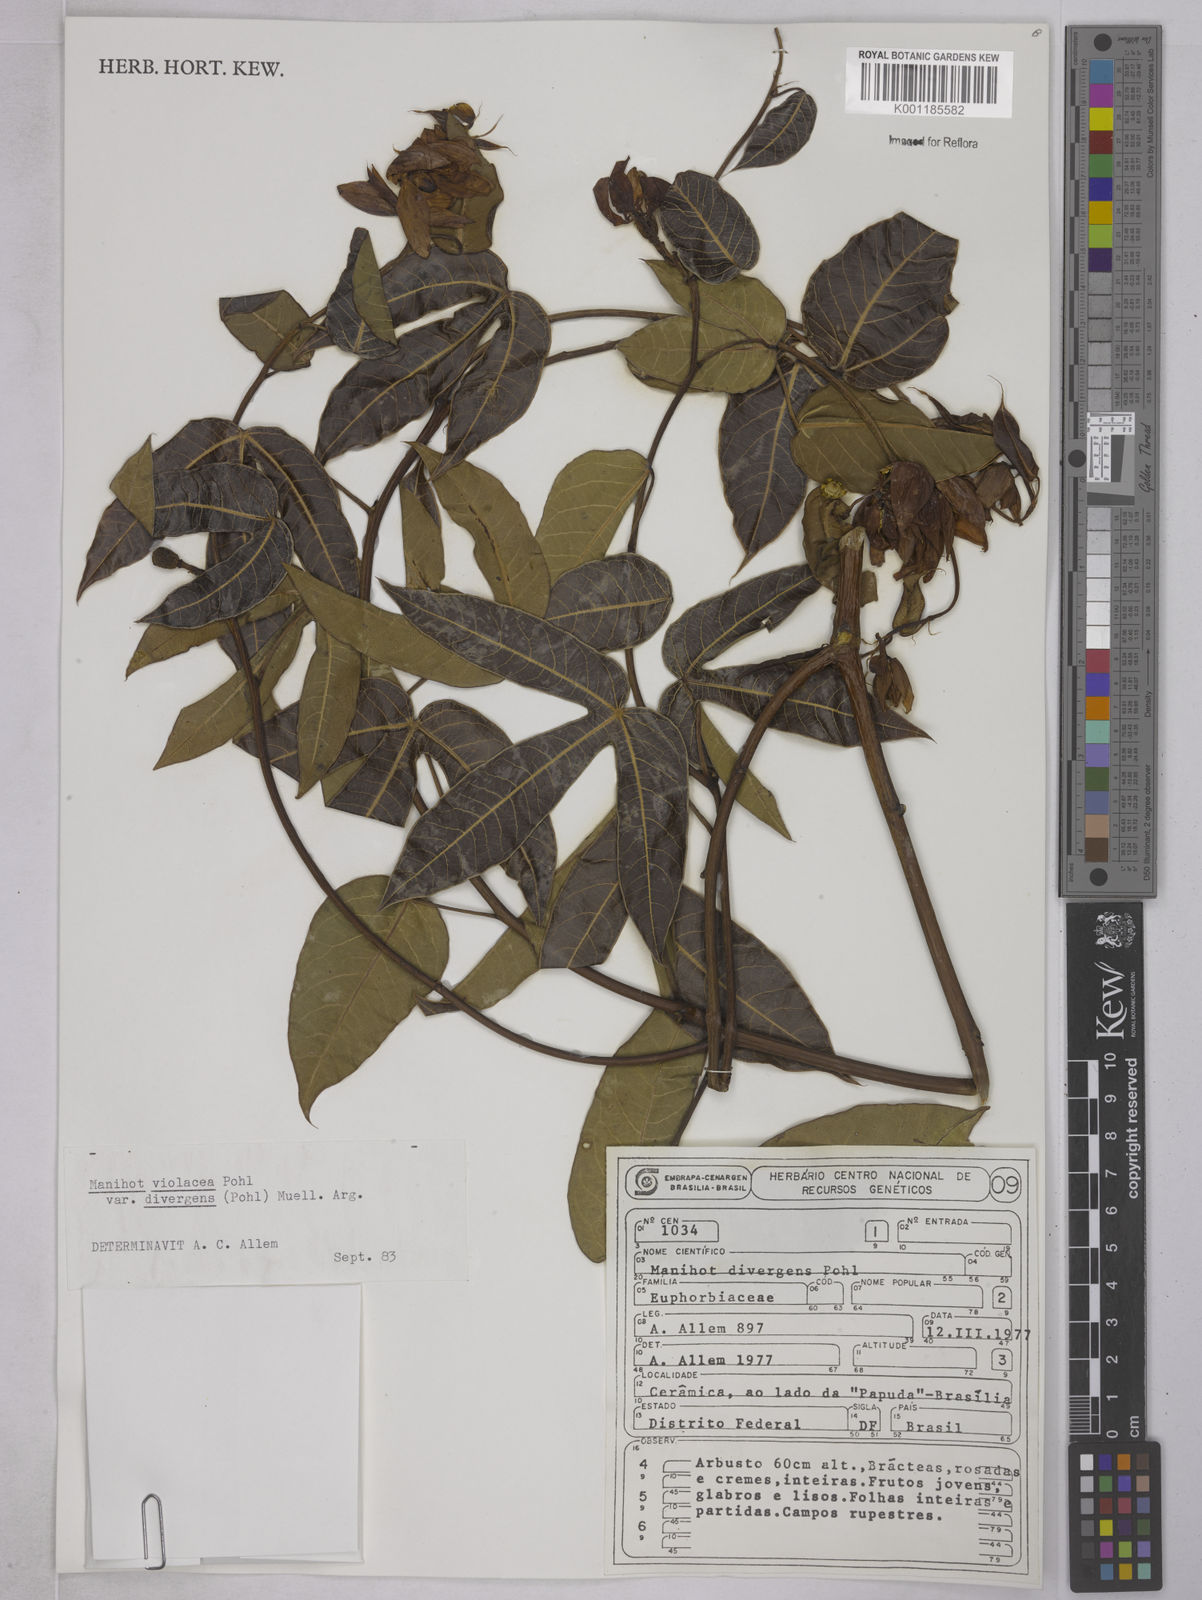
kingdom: Plantae
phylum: Tracheophyta
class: Magnoliopsida
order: Malpighiales
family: Euphorbiaceae
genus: Manihot
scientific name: Manihot divergens
